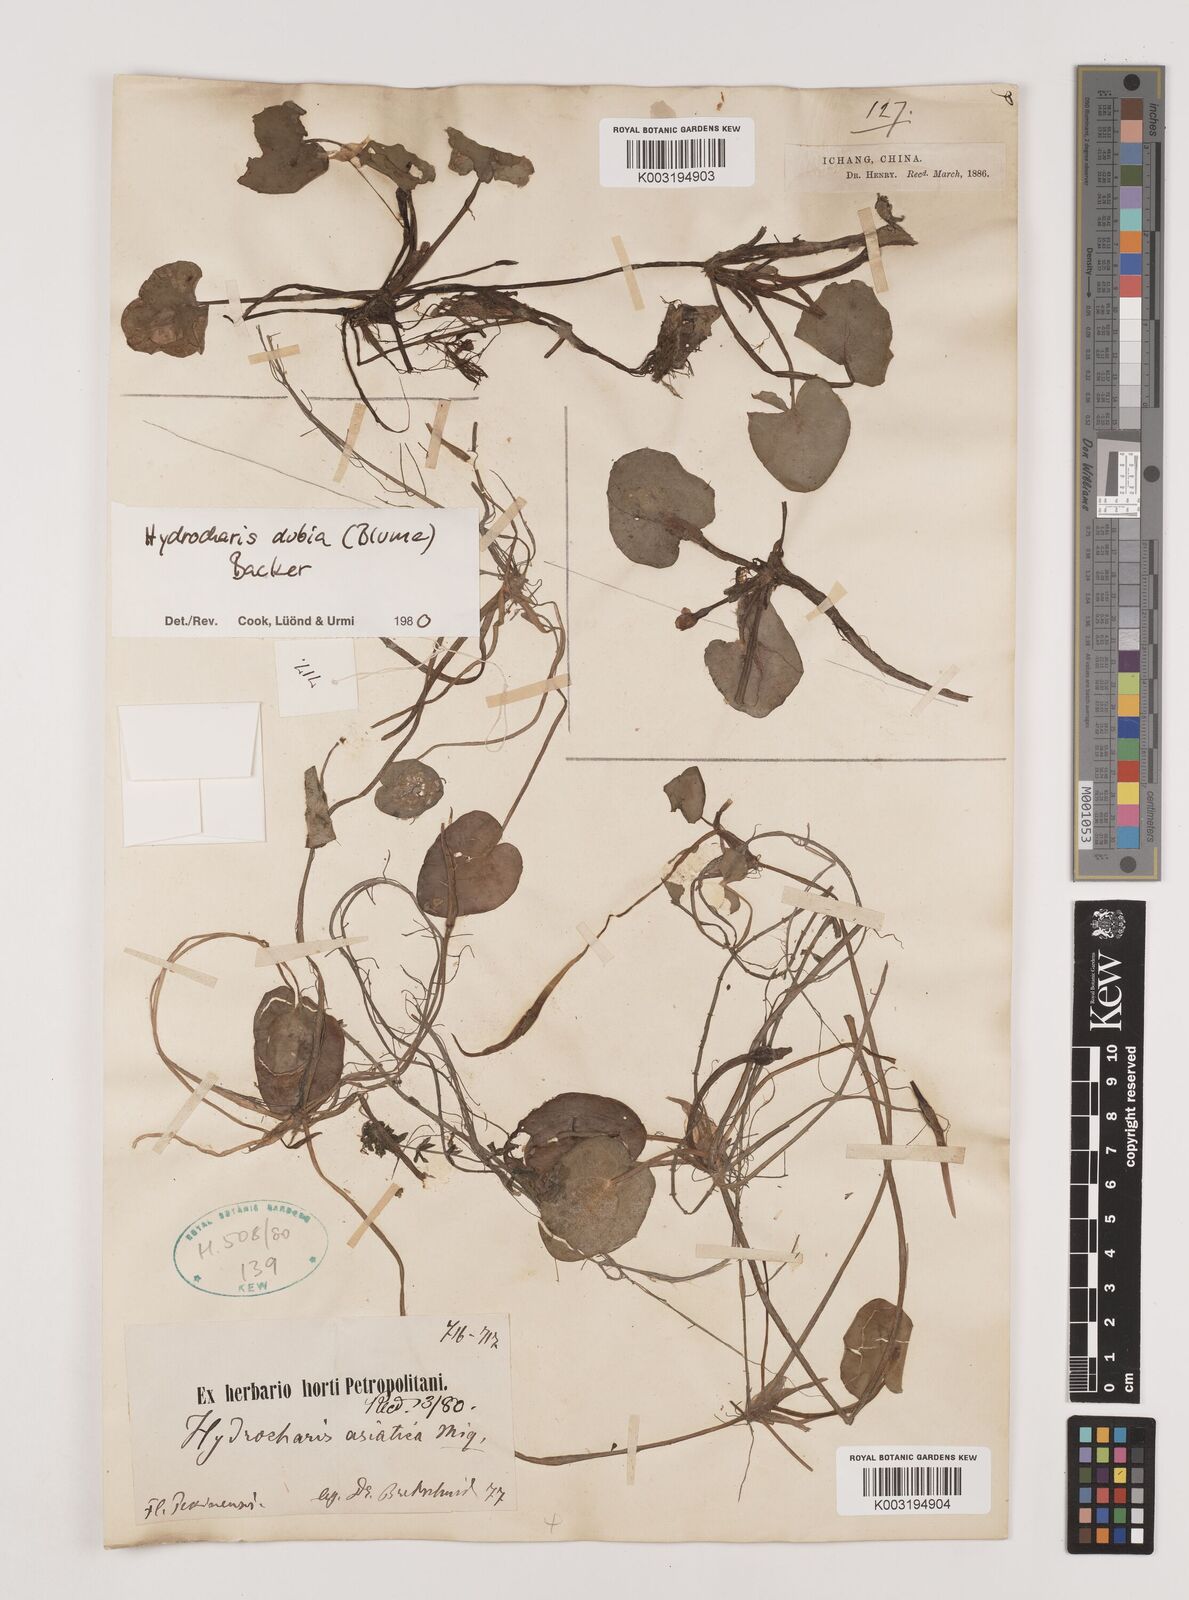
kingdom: Plantae
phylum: Tracheophyta
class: Liliopsida
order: Alismatales
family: Hydrocharitaceae
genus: Hydrocharis
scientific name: Hydrocharis dubia
